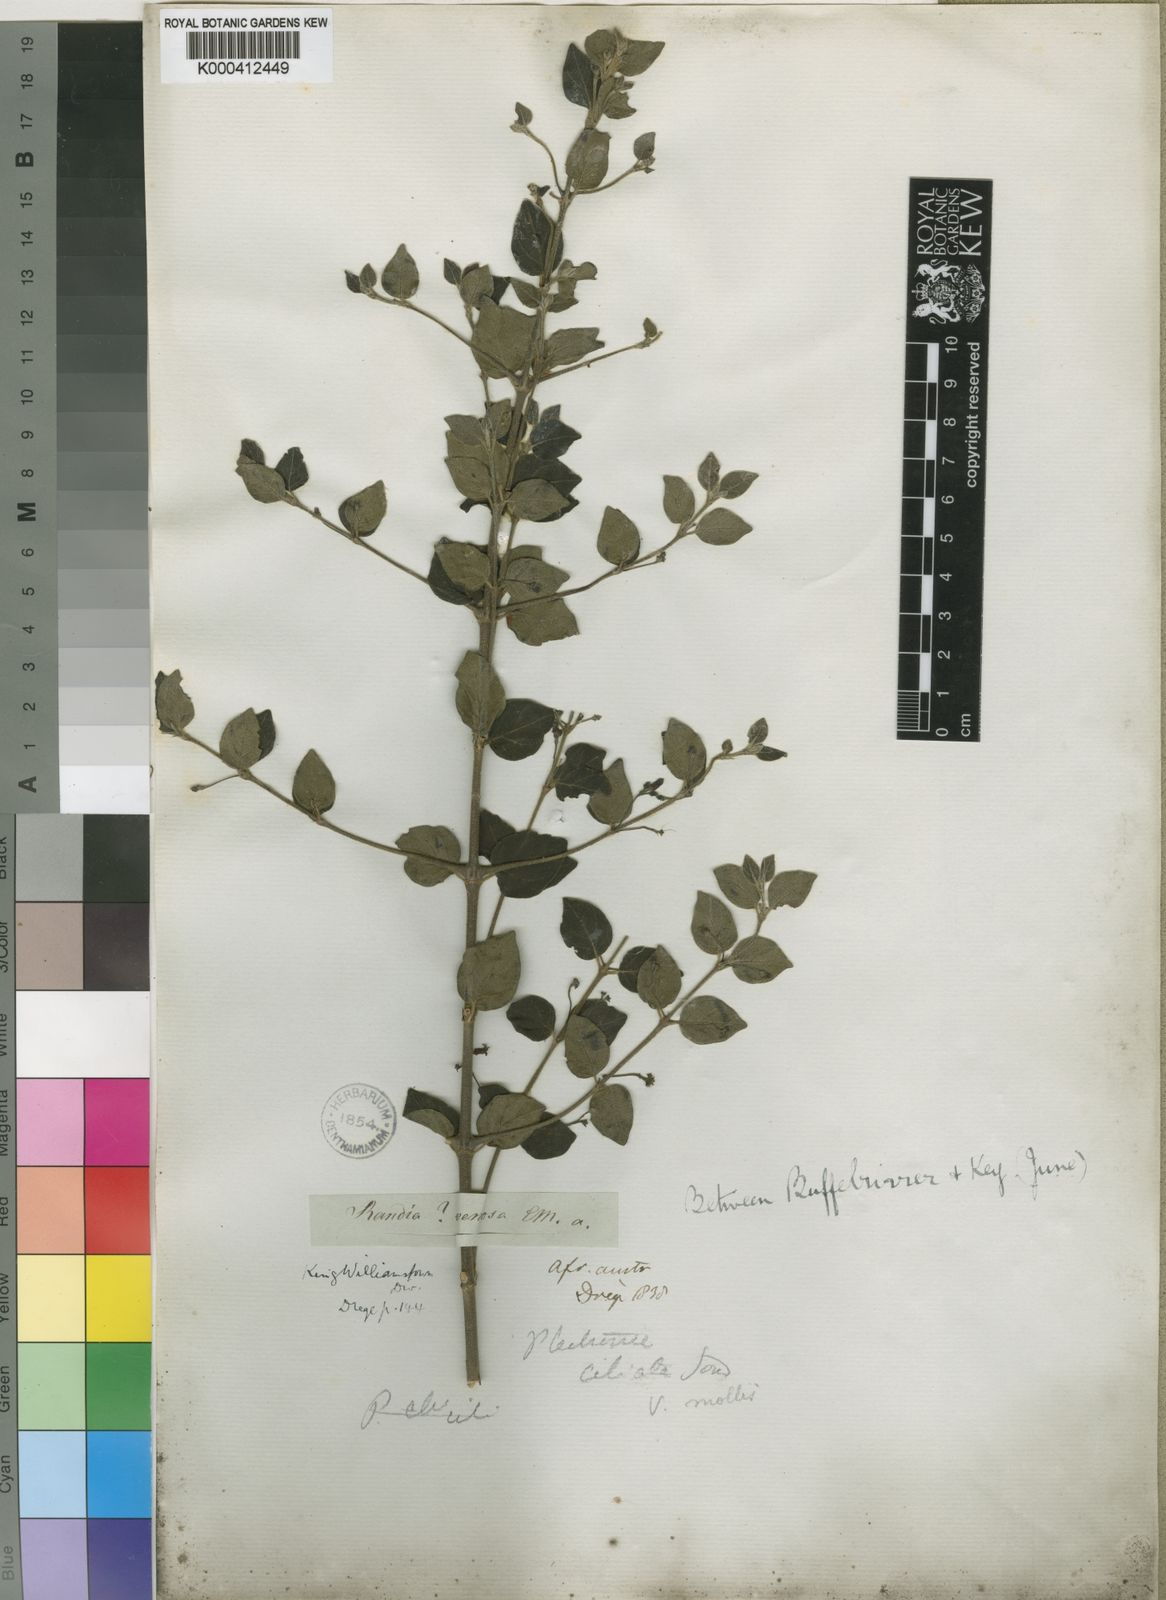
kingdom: Plantae
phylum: Tracheophyta
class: Magnoliopsida
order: Gentianales
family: Rubiaceae
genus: Canthium
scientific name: Canthium ciliatum
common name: Hairy turkey-berry
